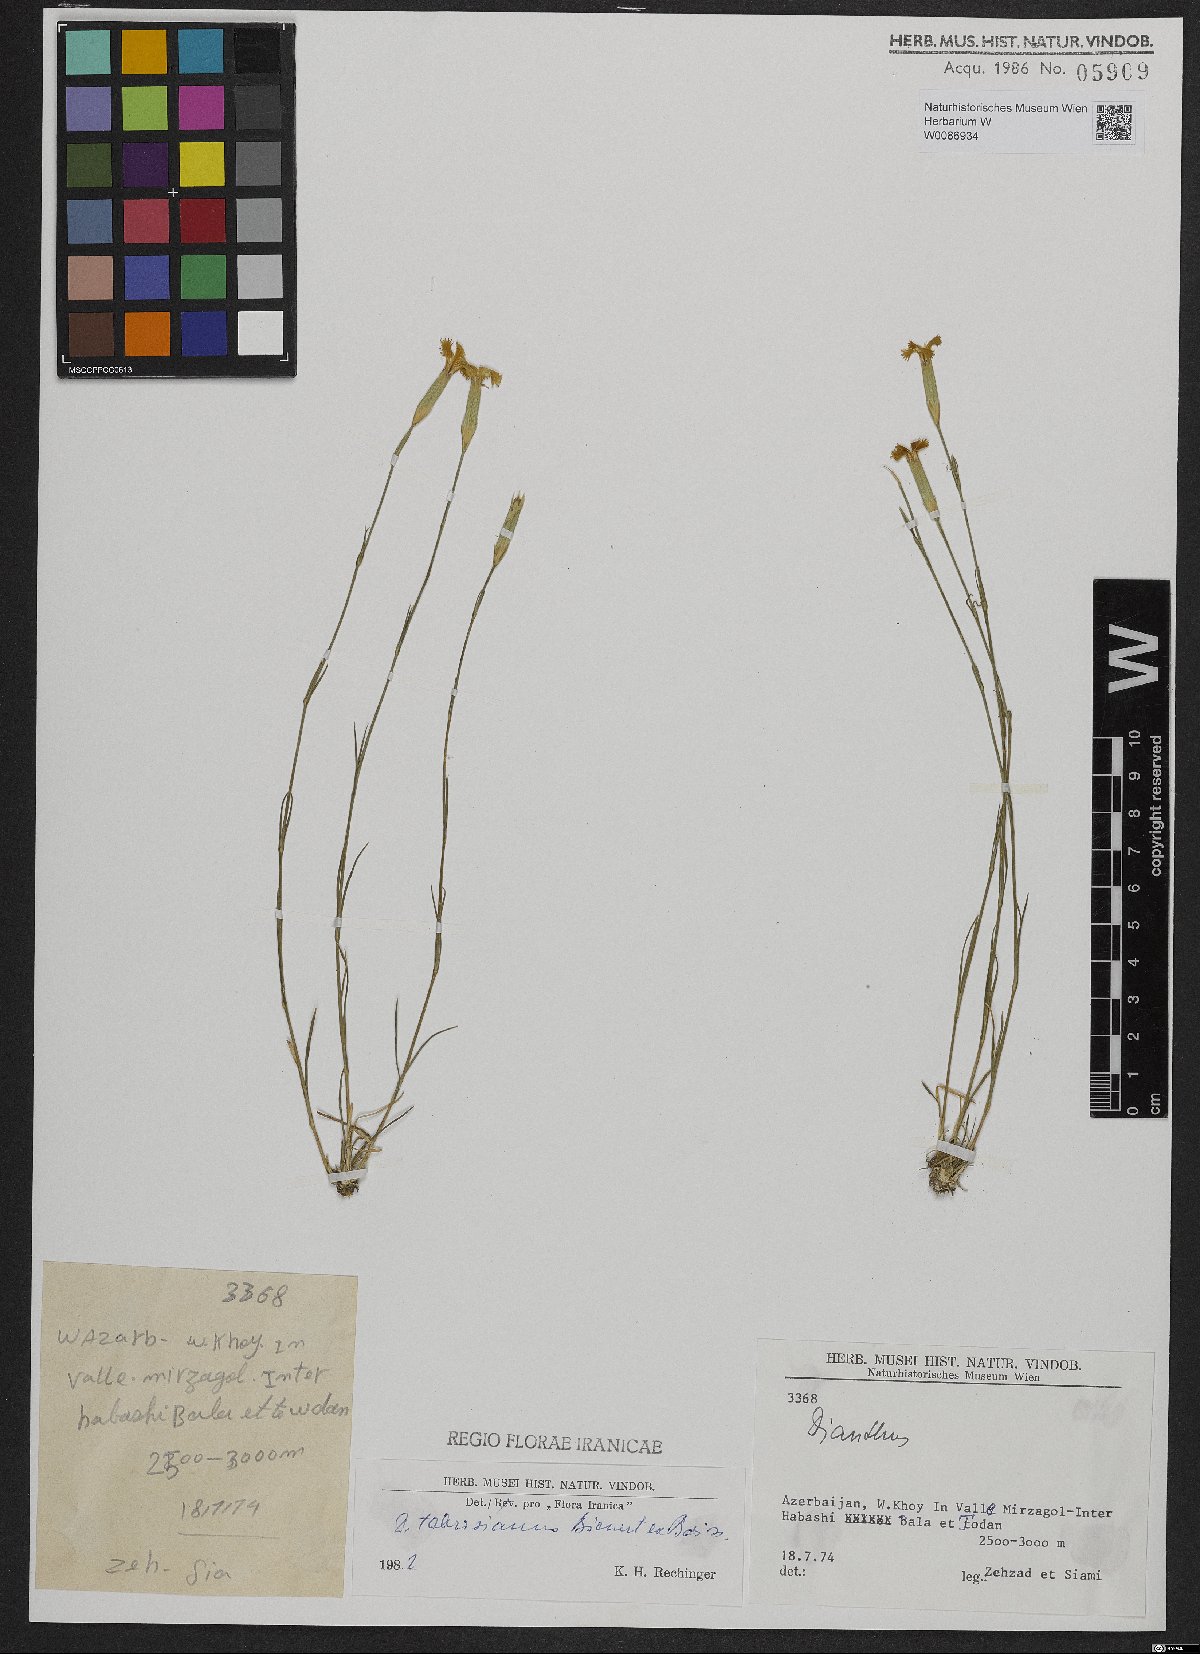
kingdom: Plantae
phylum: Tracheophyta
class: Magnoliopsida
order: Caryophyllales
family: Caryophyllaceae
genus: Dianthus
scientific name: Dianthus tabrisianus
